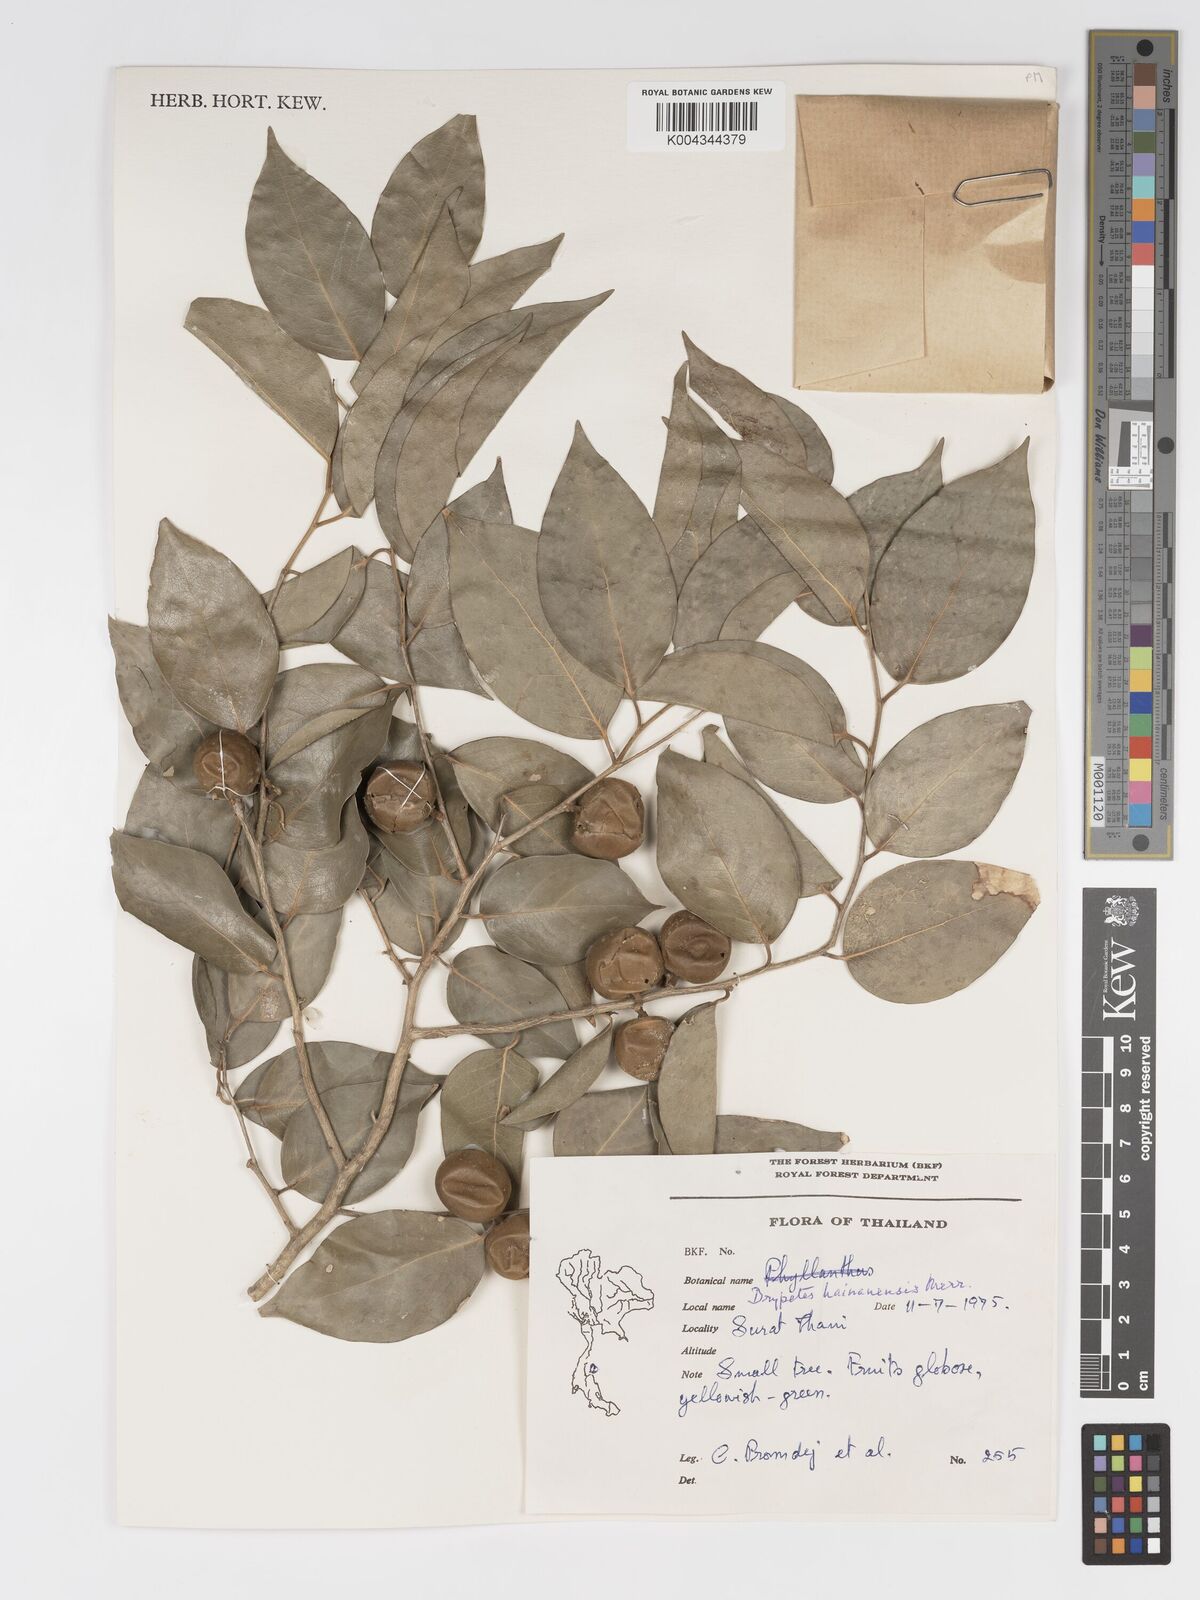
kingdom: Plantae
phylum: Tracheophyta
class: Magnoliopsida
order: Malpighiales
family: Putranjivaceae
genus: Drypetes
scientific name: Drypetes hainanensis
